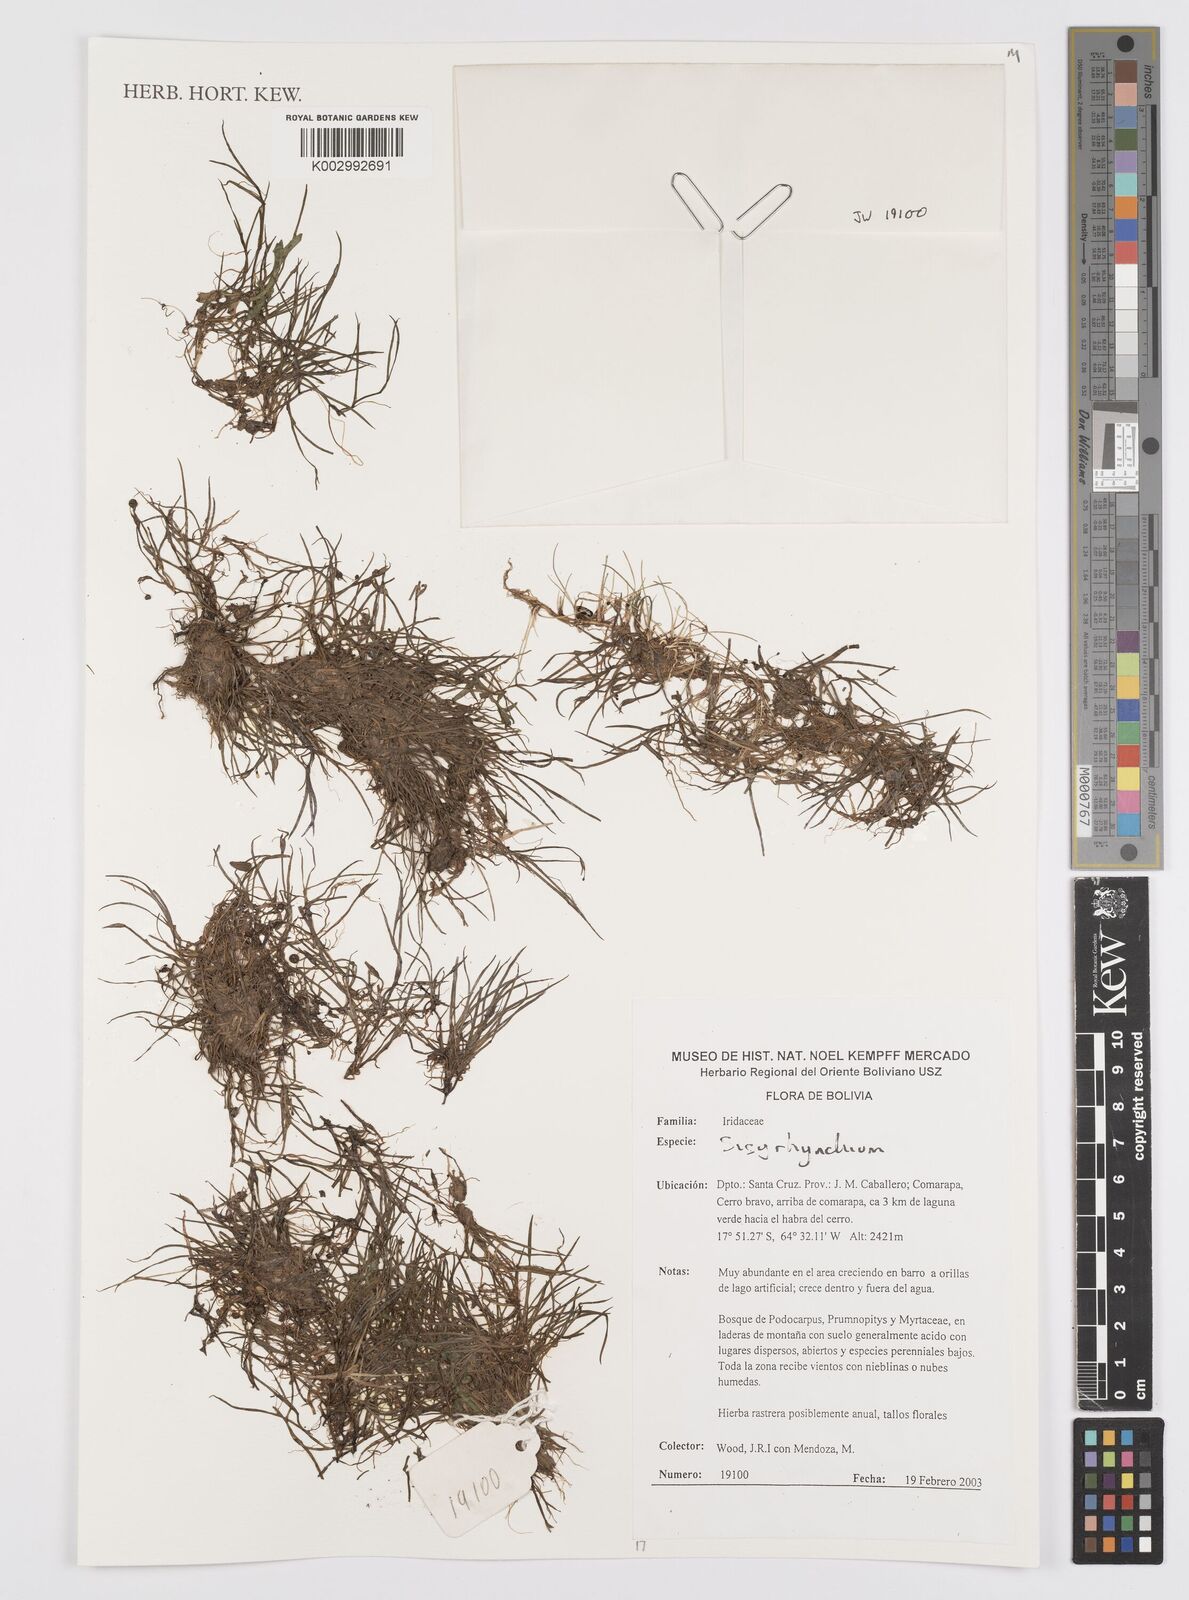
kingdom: Plantae
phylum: Tracheophyta
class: Liliopsida
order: Asparagales
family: Iridaceae
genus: Sisyrinchium
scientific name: Sisyrinchium
